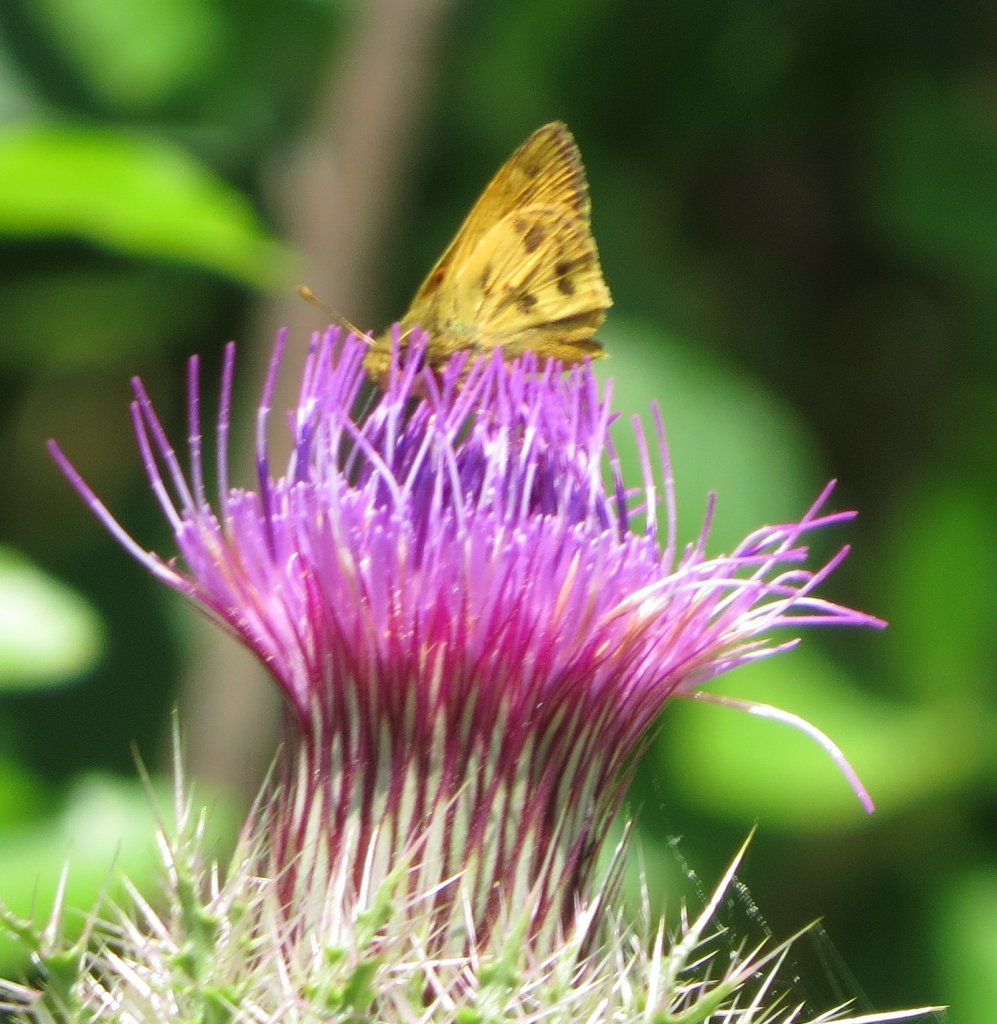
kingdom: Animalia
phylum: Arthropoda
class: Insecta
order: Lepidoptera
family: Hesperiidae
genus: Polites
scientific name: Polites vibex
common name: Whirlabout
